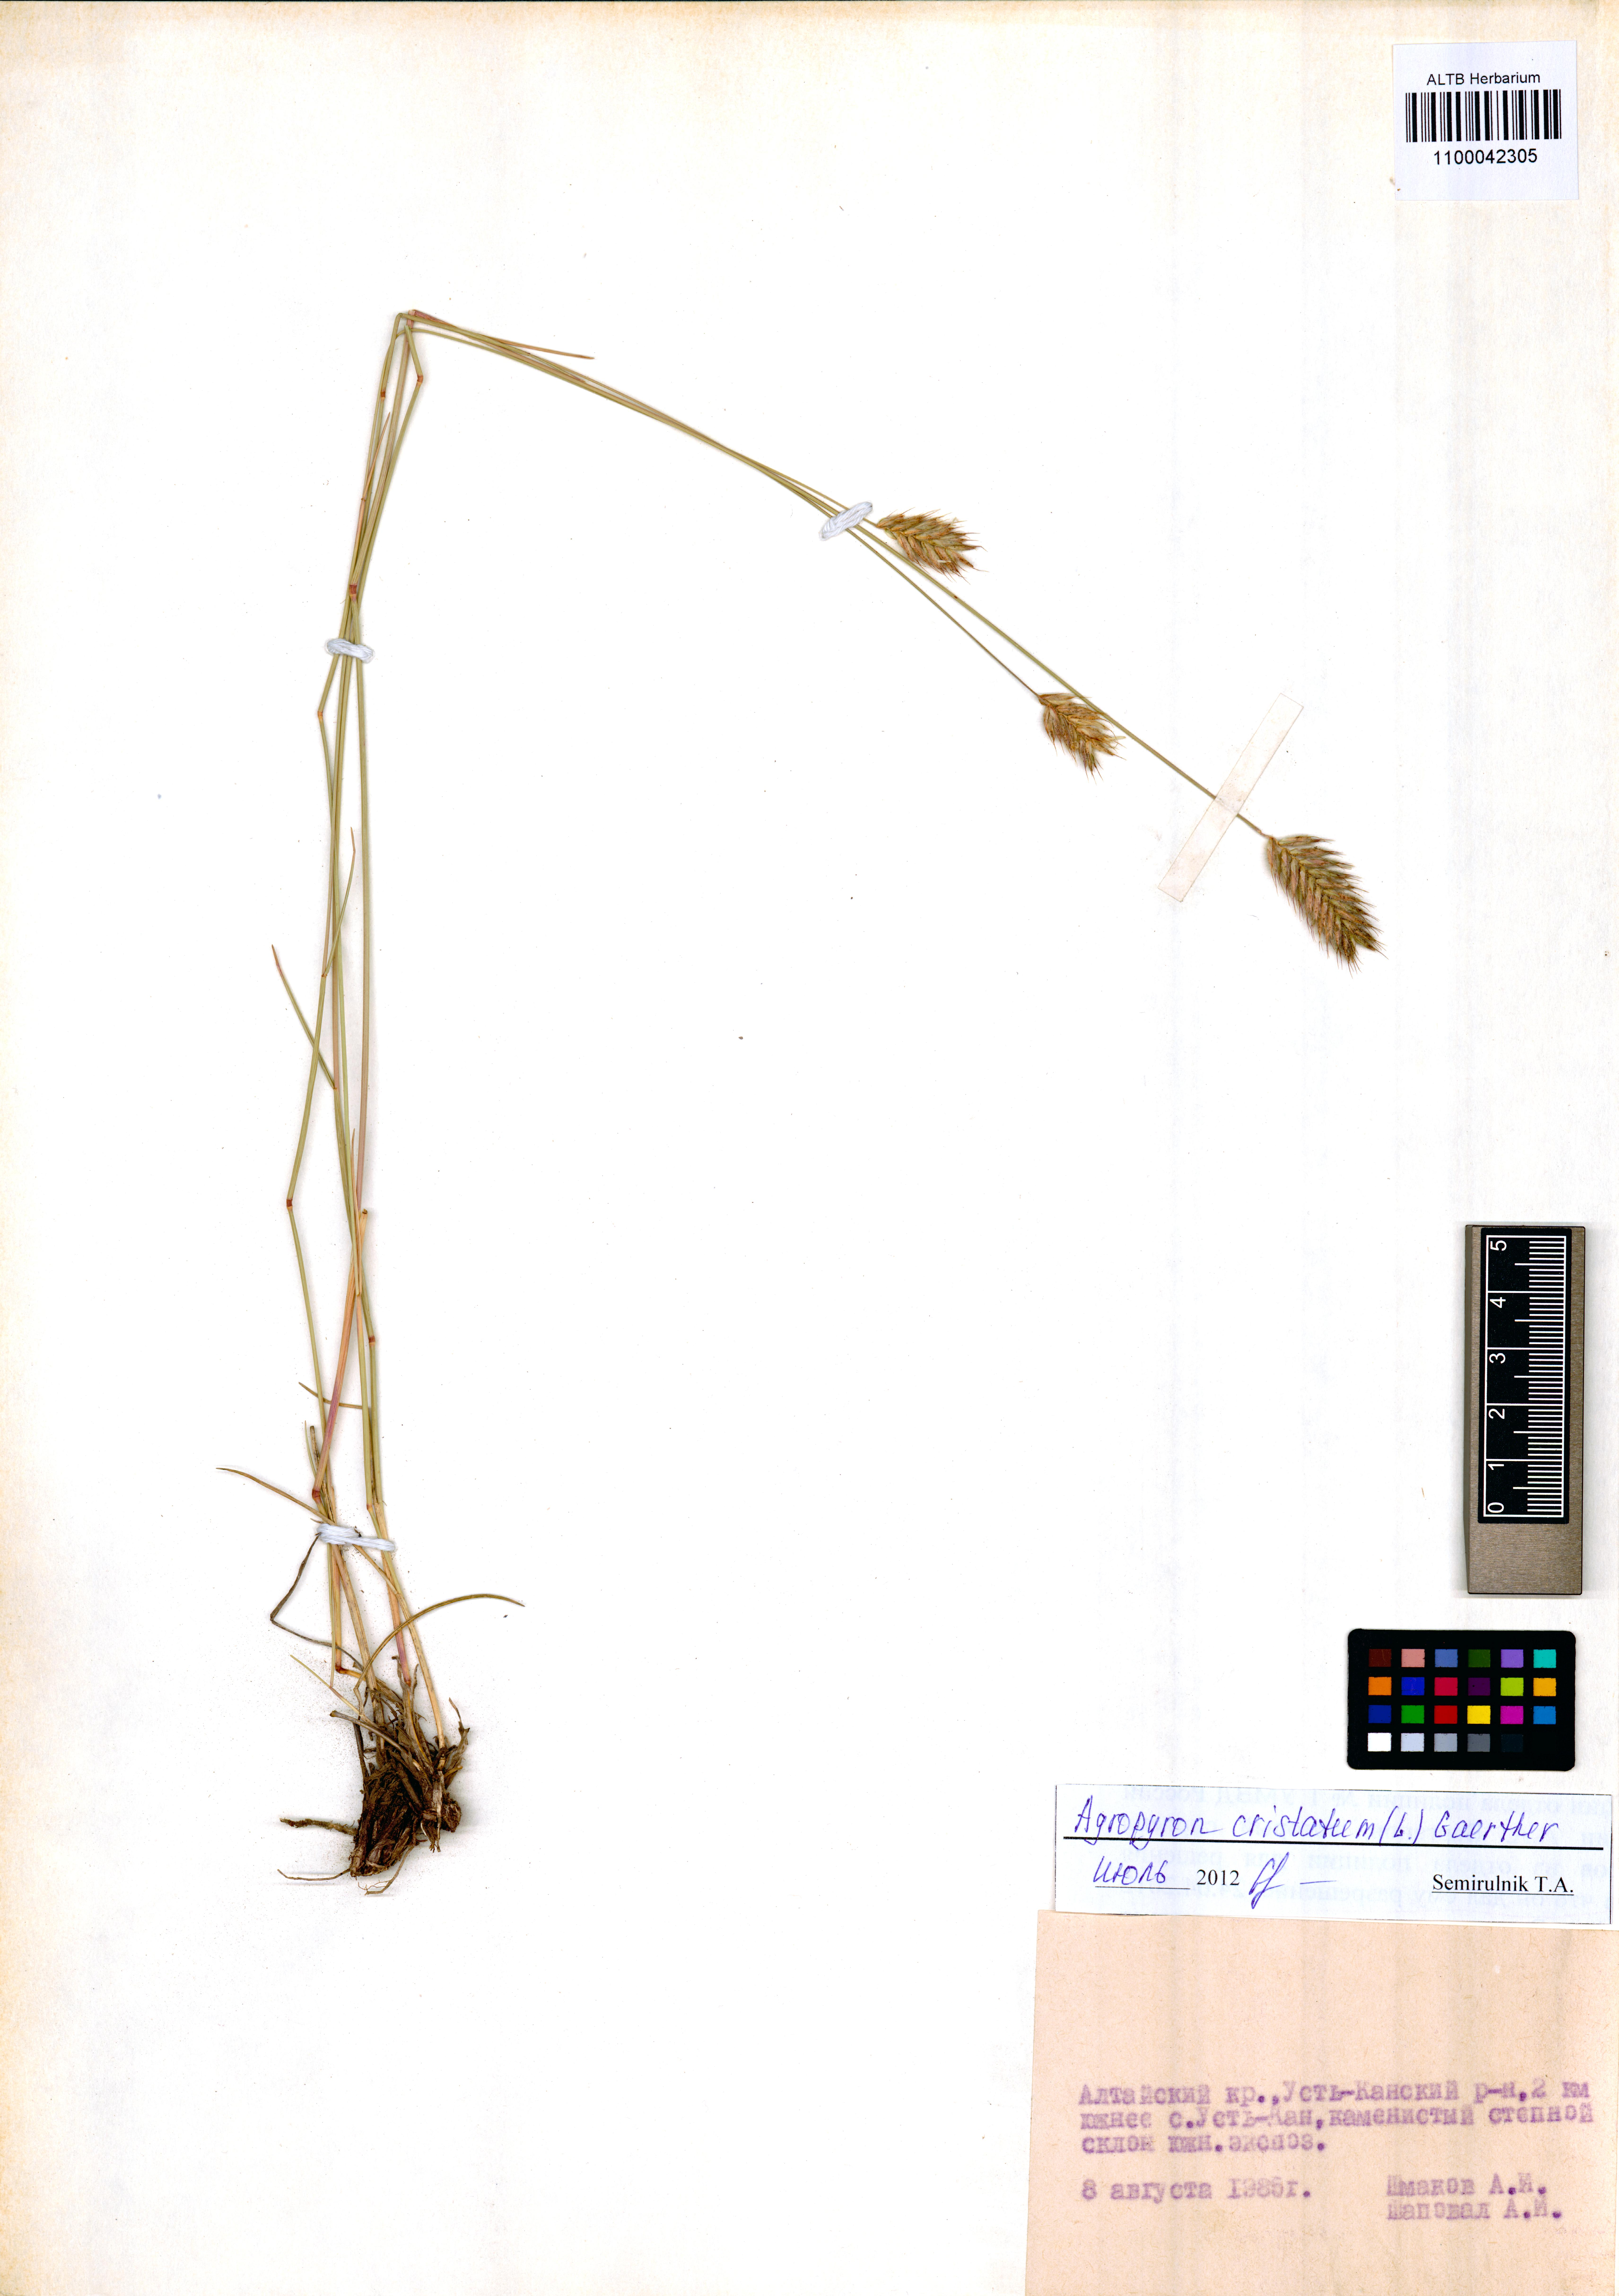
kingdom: Plantae
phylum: Tracheophyta
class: Liliopsida
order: Poales
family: Poaceae
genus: Agropyron
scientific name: Agropyron cristatum
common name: Crested wheatgrass
